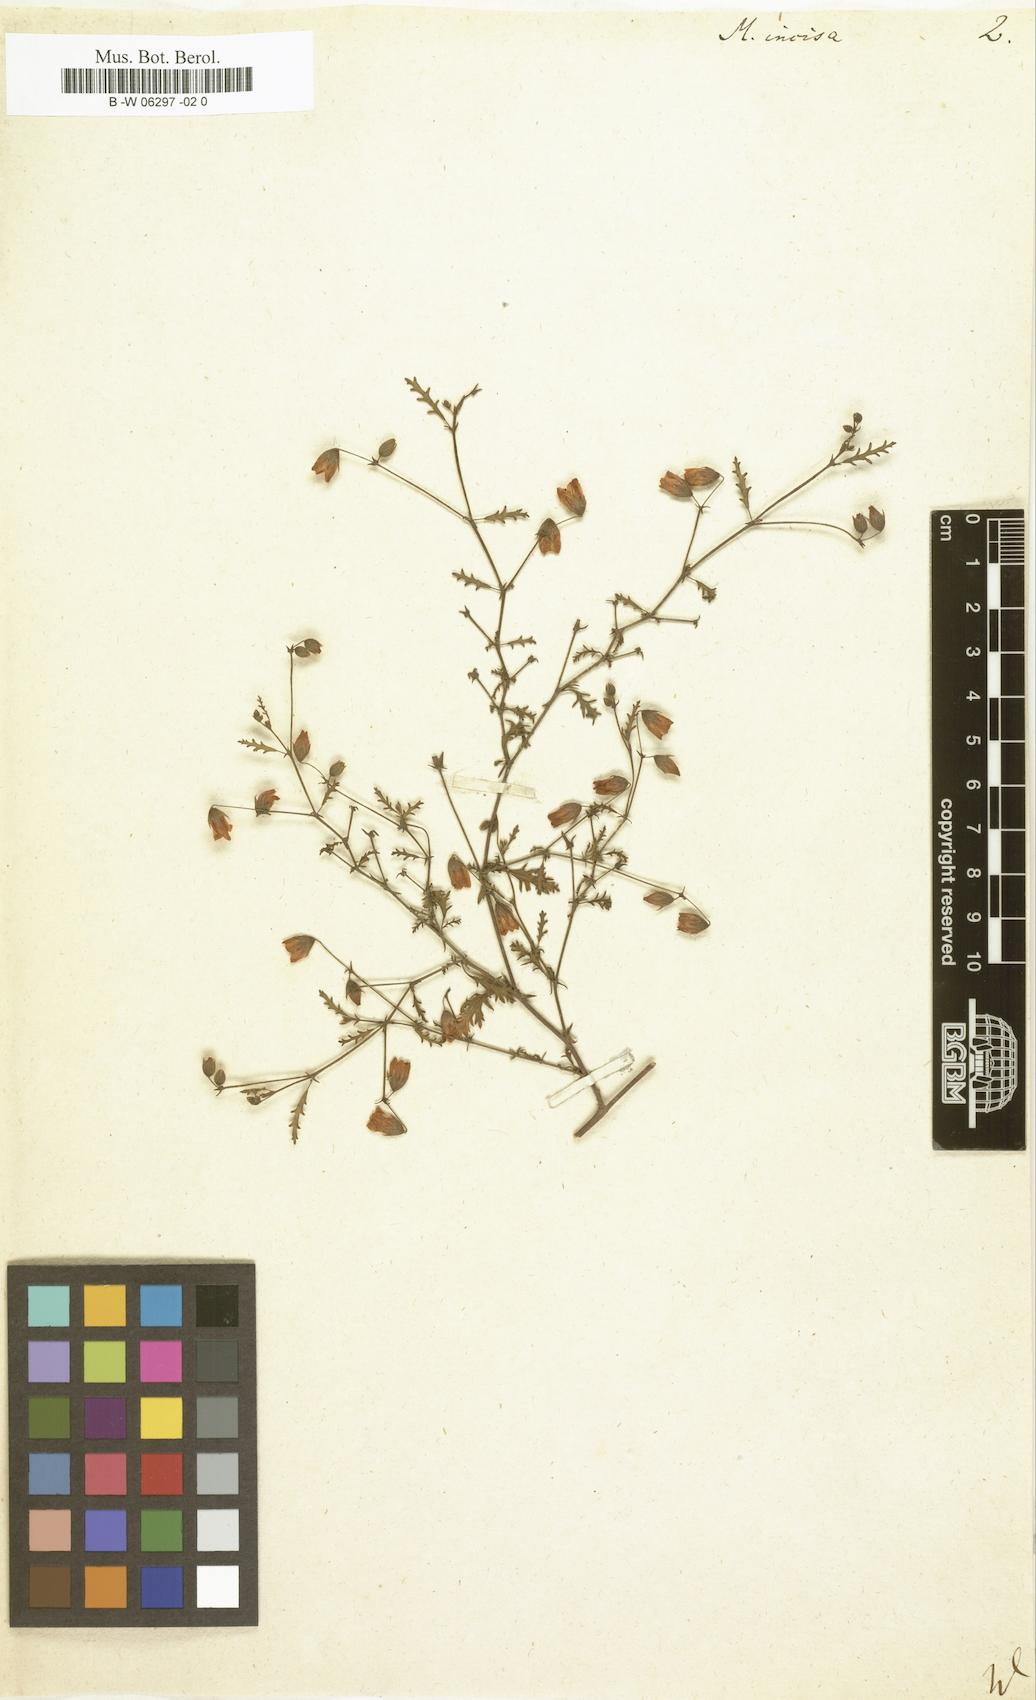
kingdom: Plantae
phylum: Tracheophyta
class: Magnoliopsida
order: Malvales
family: Malvaceae
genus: Hermannia
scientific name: Hermannia grossularifolia
